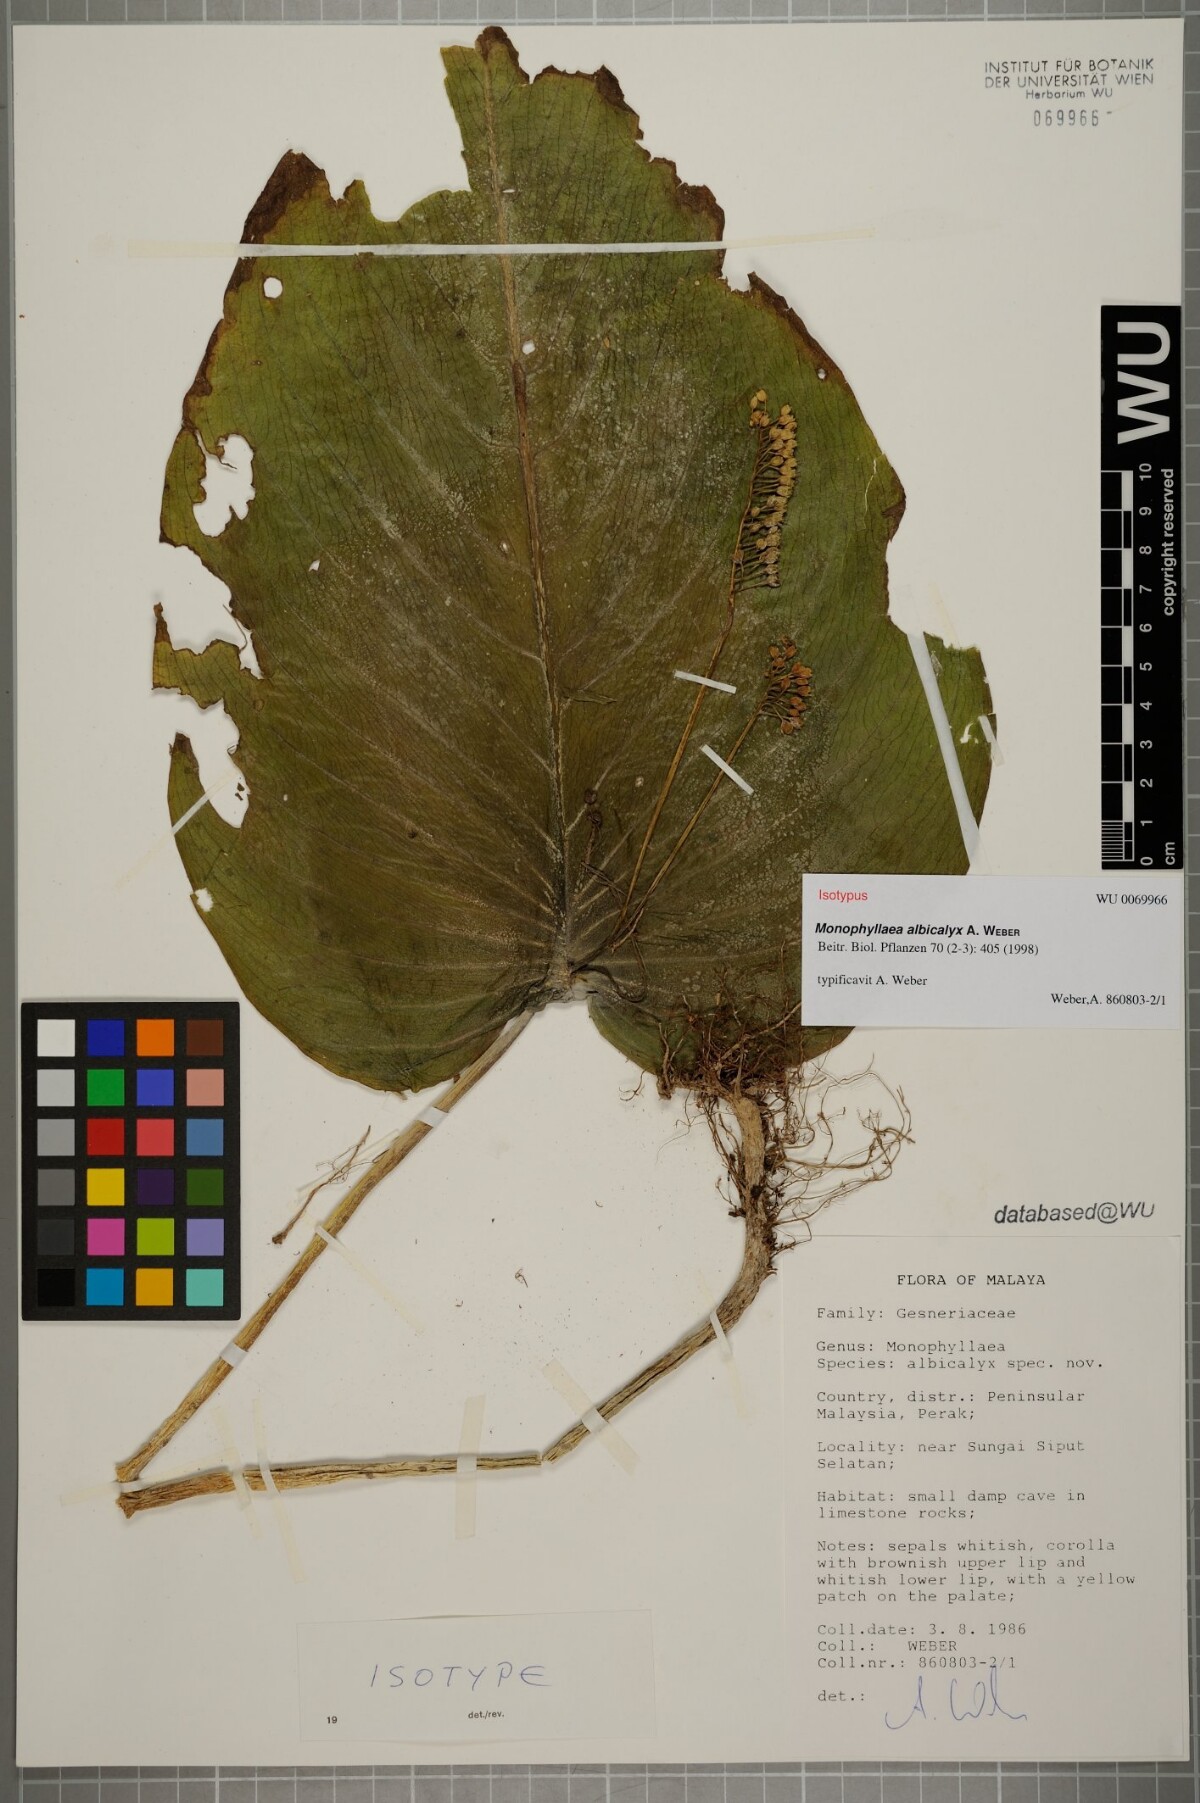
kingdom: Plantae
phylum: Tracheophyta
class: Magnoliopsida
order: Lamiales
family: Gesneriaceae
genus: Monophyllaea
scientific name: Monophyllaea albicalyx
